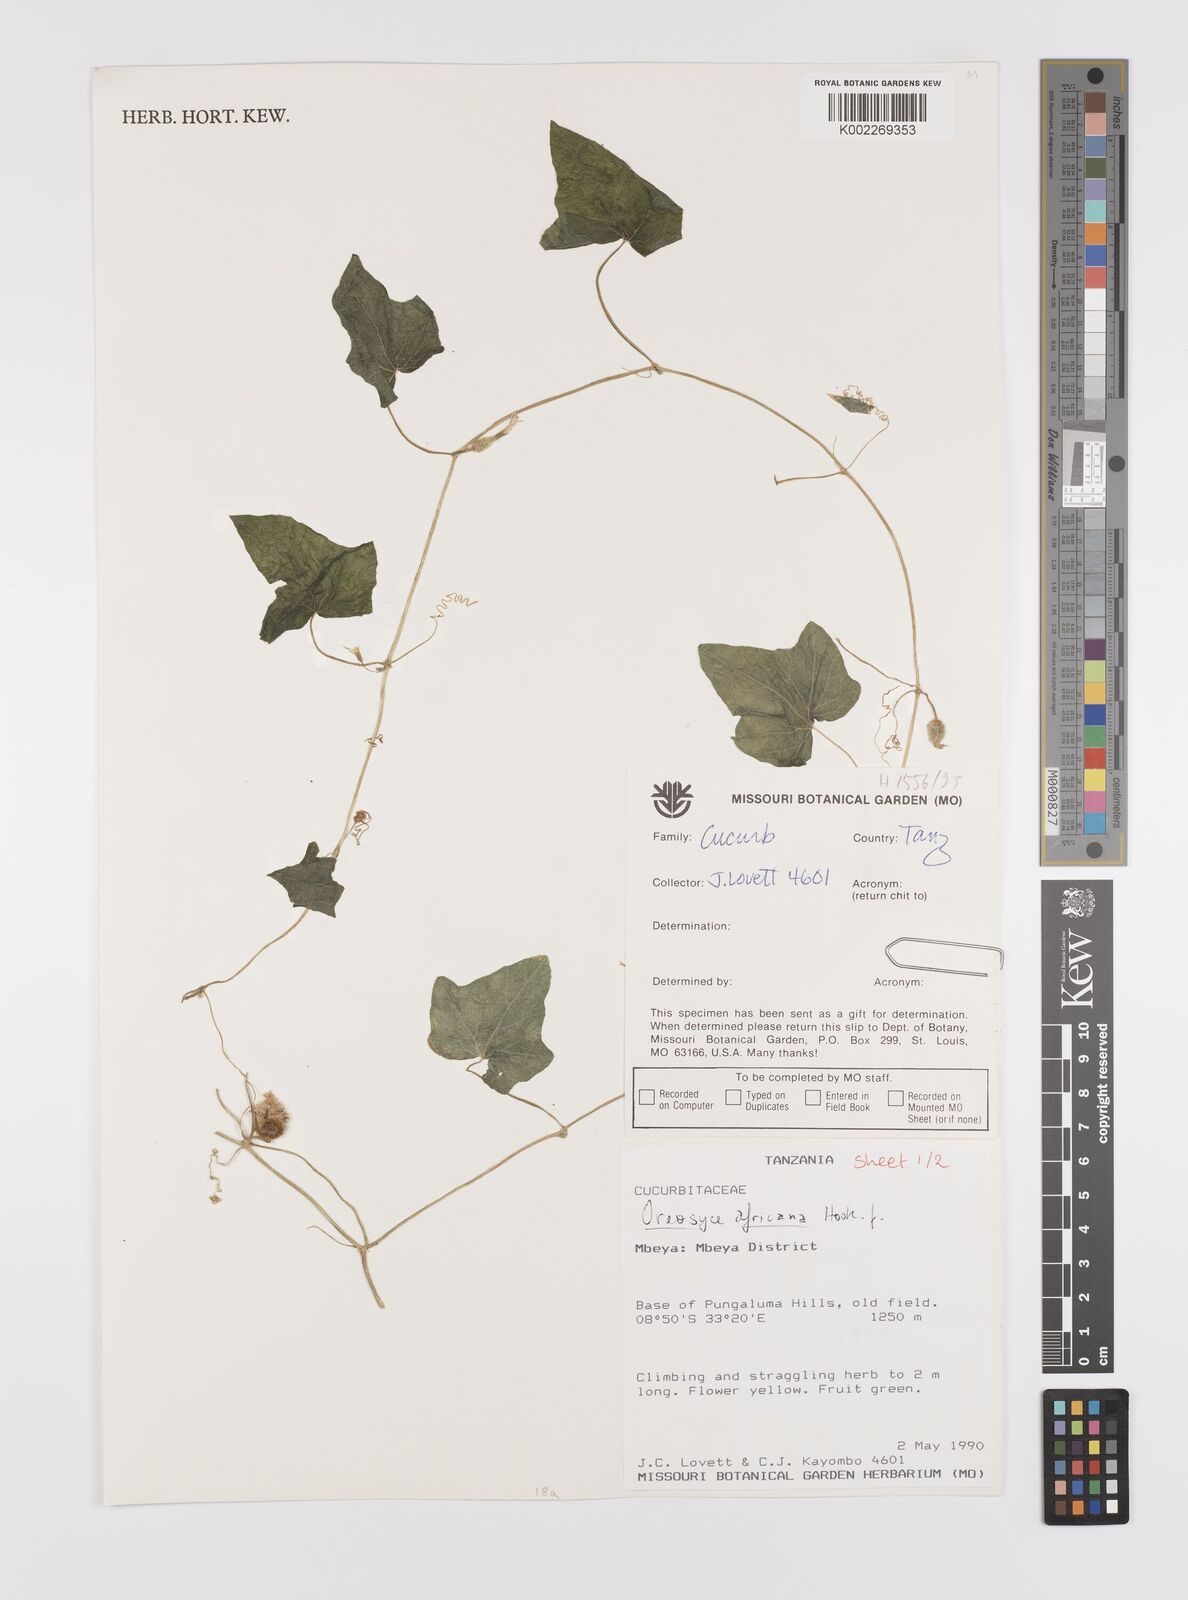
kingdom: Plantae
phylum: Tracheophyta
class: Magnoliopsida
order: Cucurbitales
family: Cucurbitaceae
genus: Cucumis
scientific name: Cucumis oreosyce
